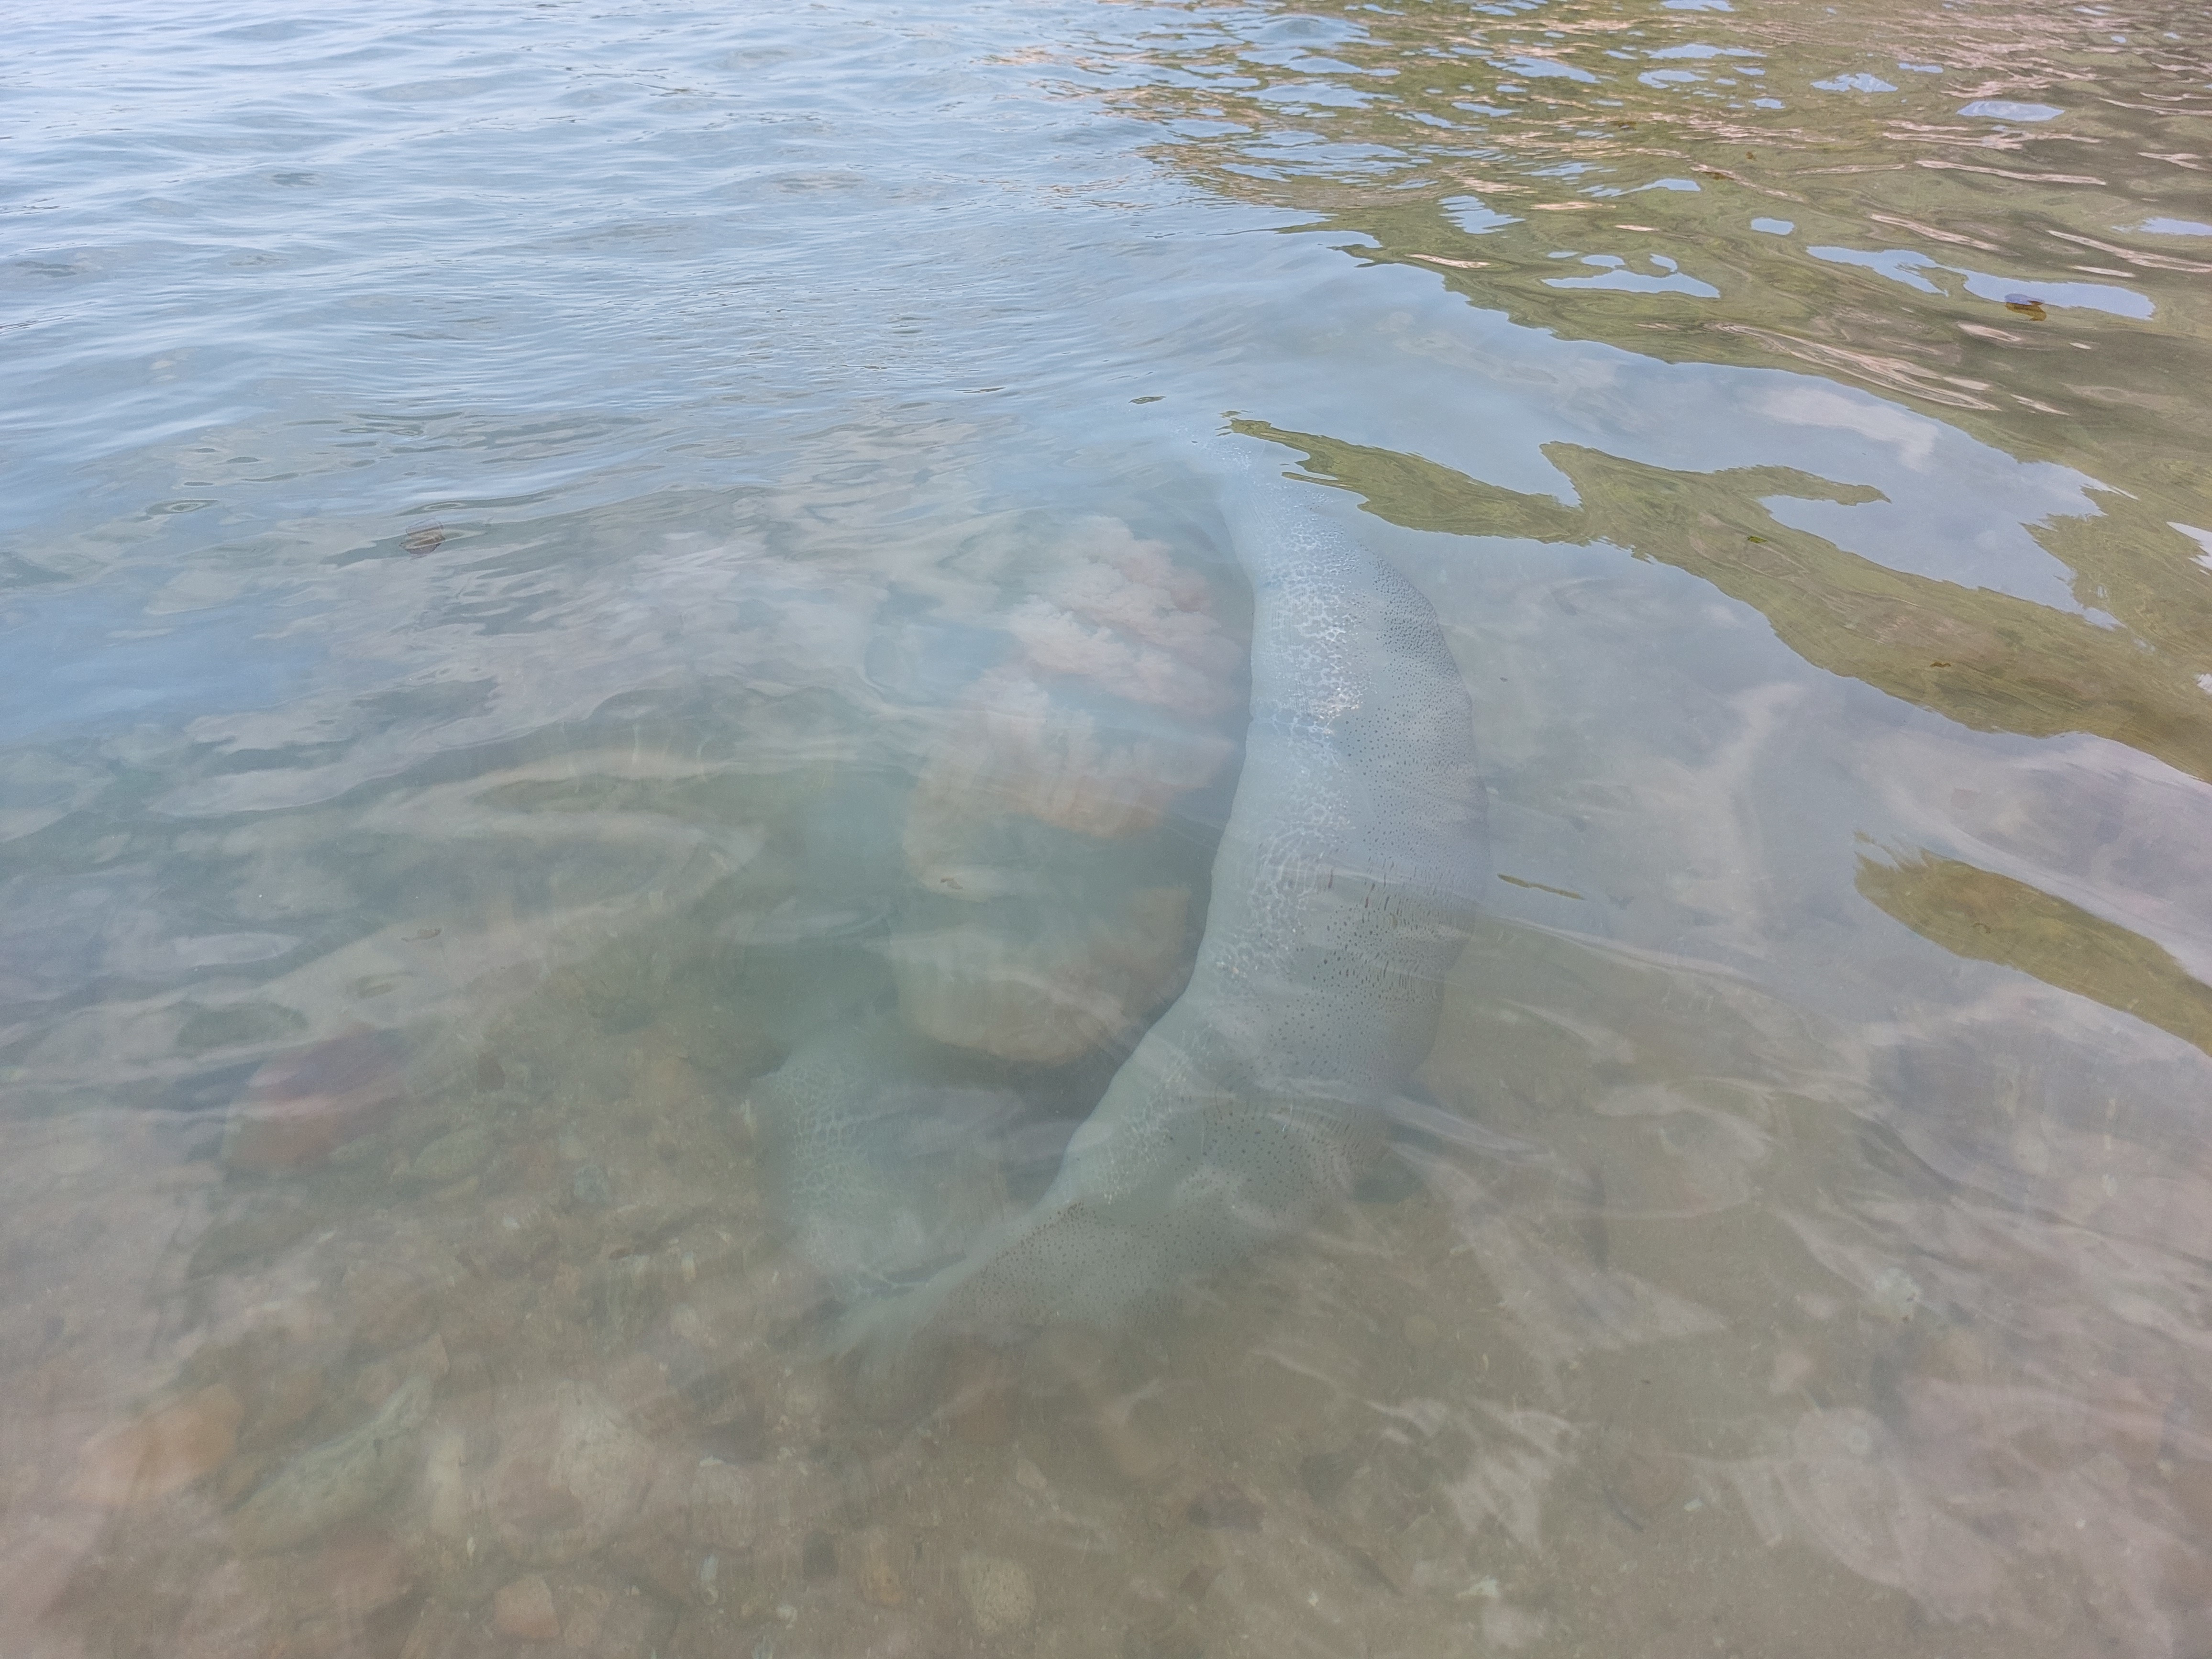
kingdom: Animalia
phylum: Cnidaria
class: Scyphozoa
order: Rhizostomeae
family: Rhizostomatidae
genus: Rhopilema
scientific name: Rhopilema hispidum
